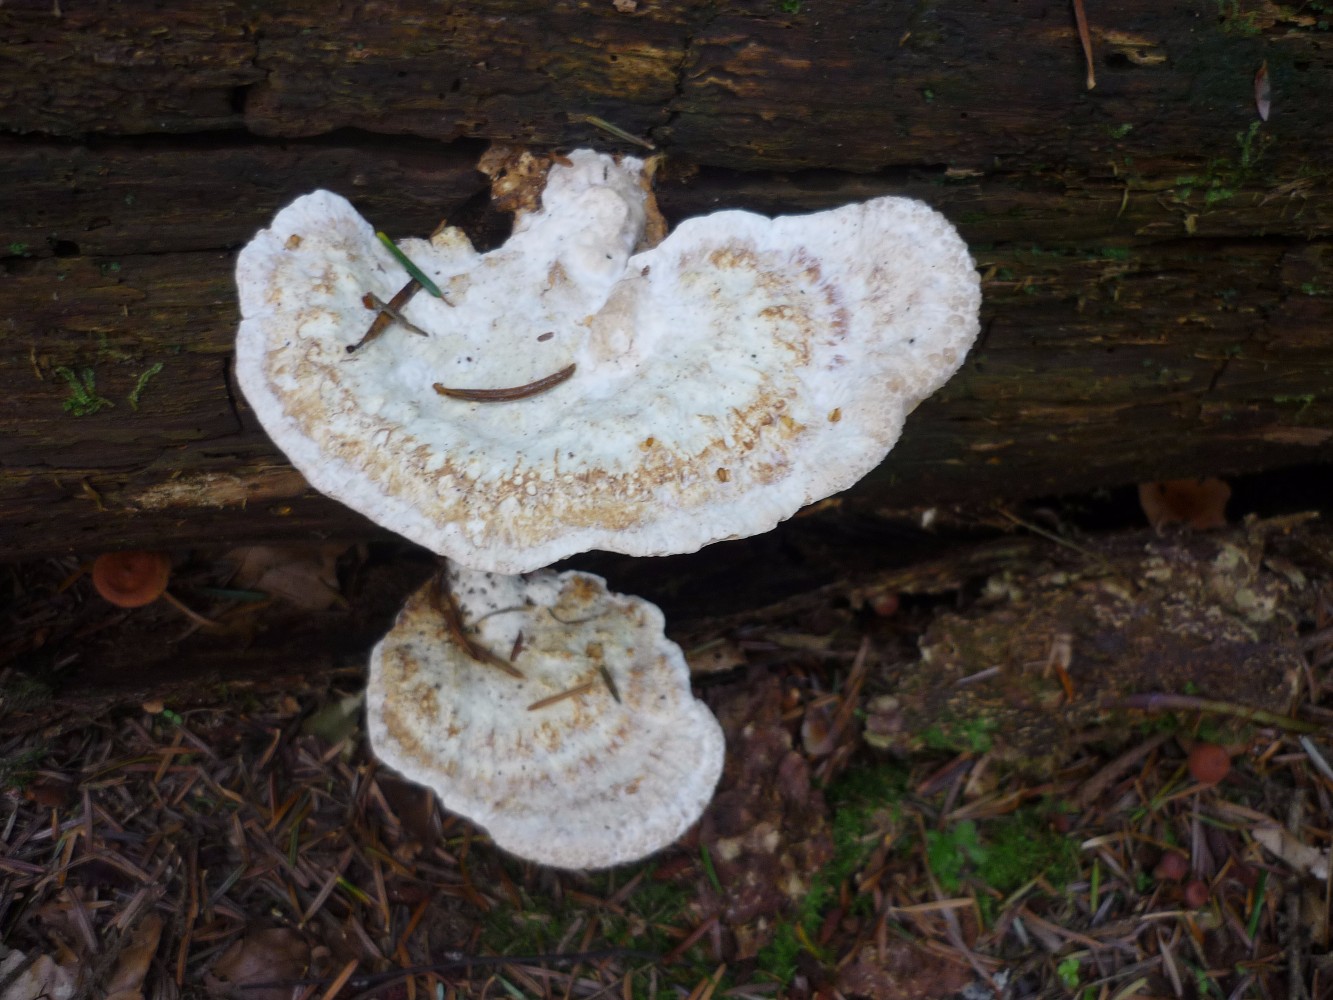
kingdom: Fungi
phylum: Basidiomycota
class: Agaricomycetes
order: Polyporales
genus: Calcipostia
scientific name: Calcipostia guttulata
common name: dråbe-kødporesvamp
